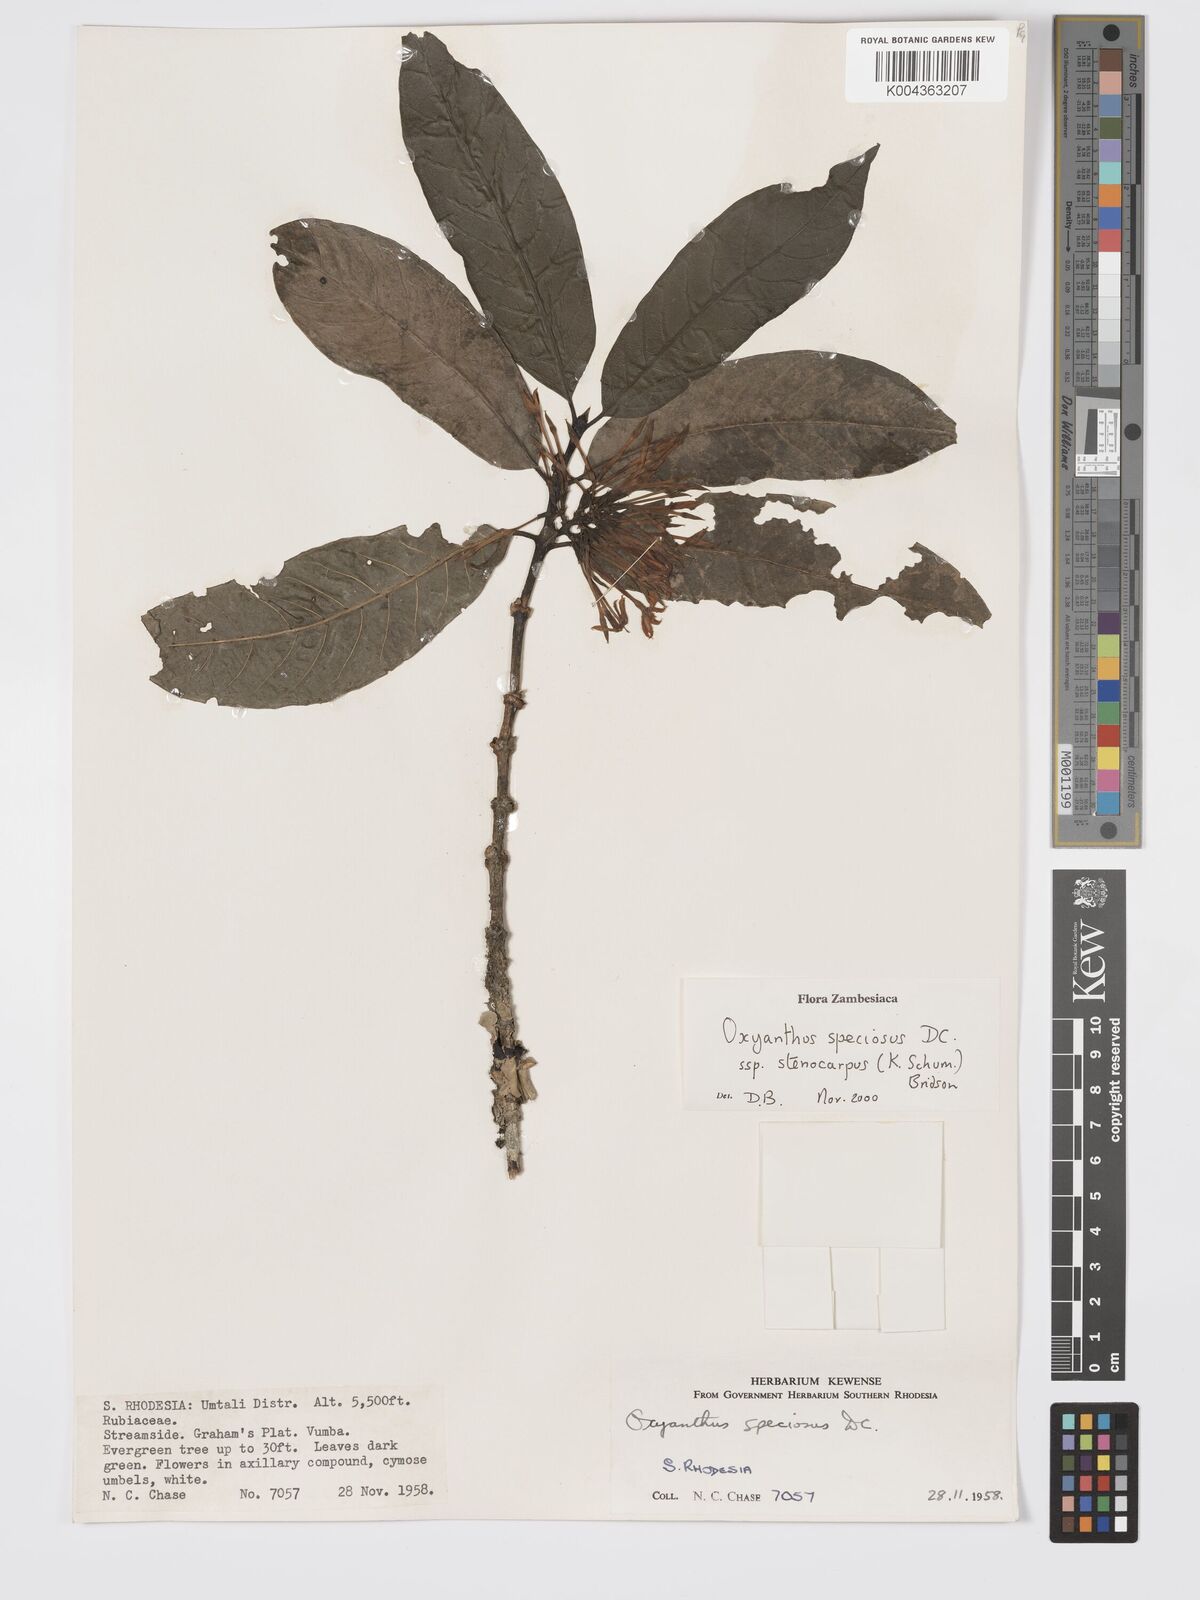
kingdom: Plantae
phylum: Tracheophyta
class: Magnoliopsida
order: Gentianales
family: Rubiaceae
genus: Oxyanthus
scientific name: Oxyanthus speciosus
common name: Whipstick loquat
